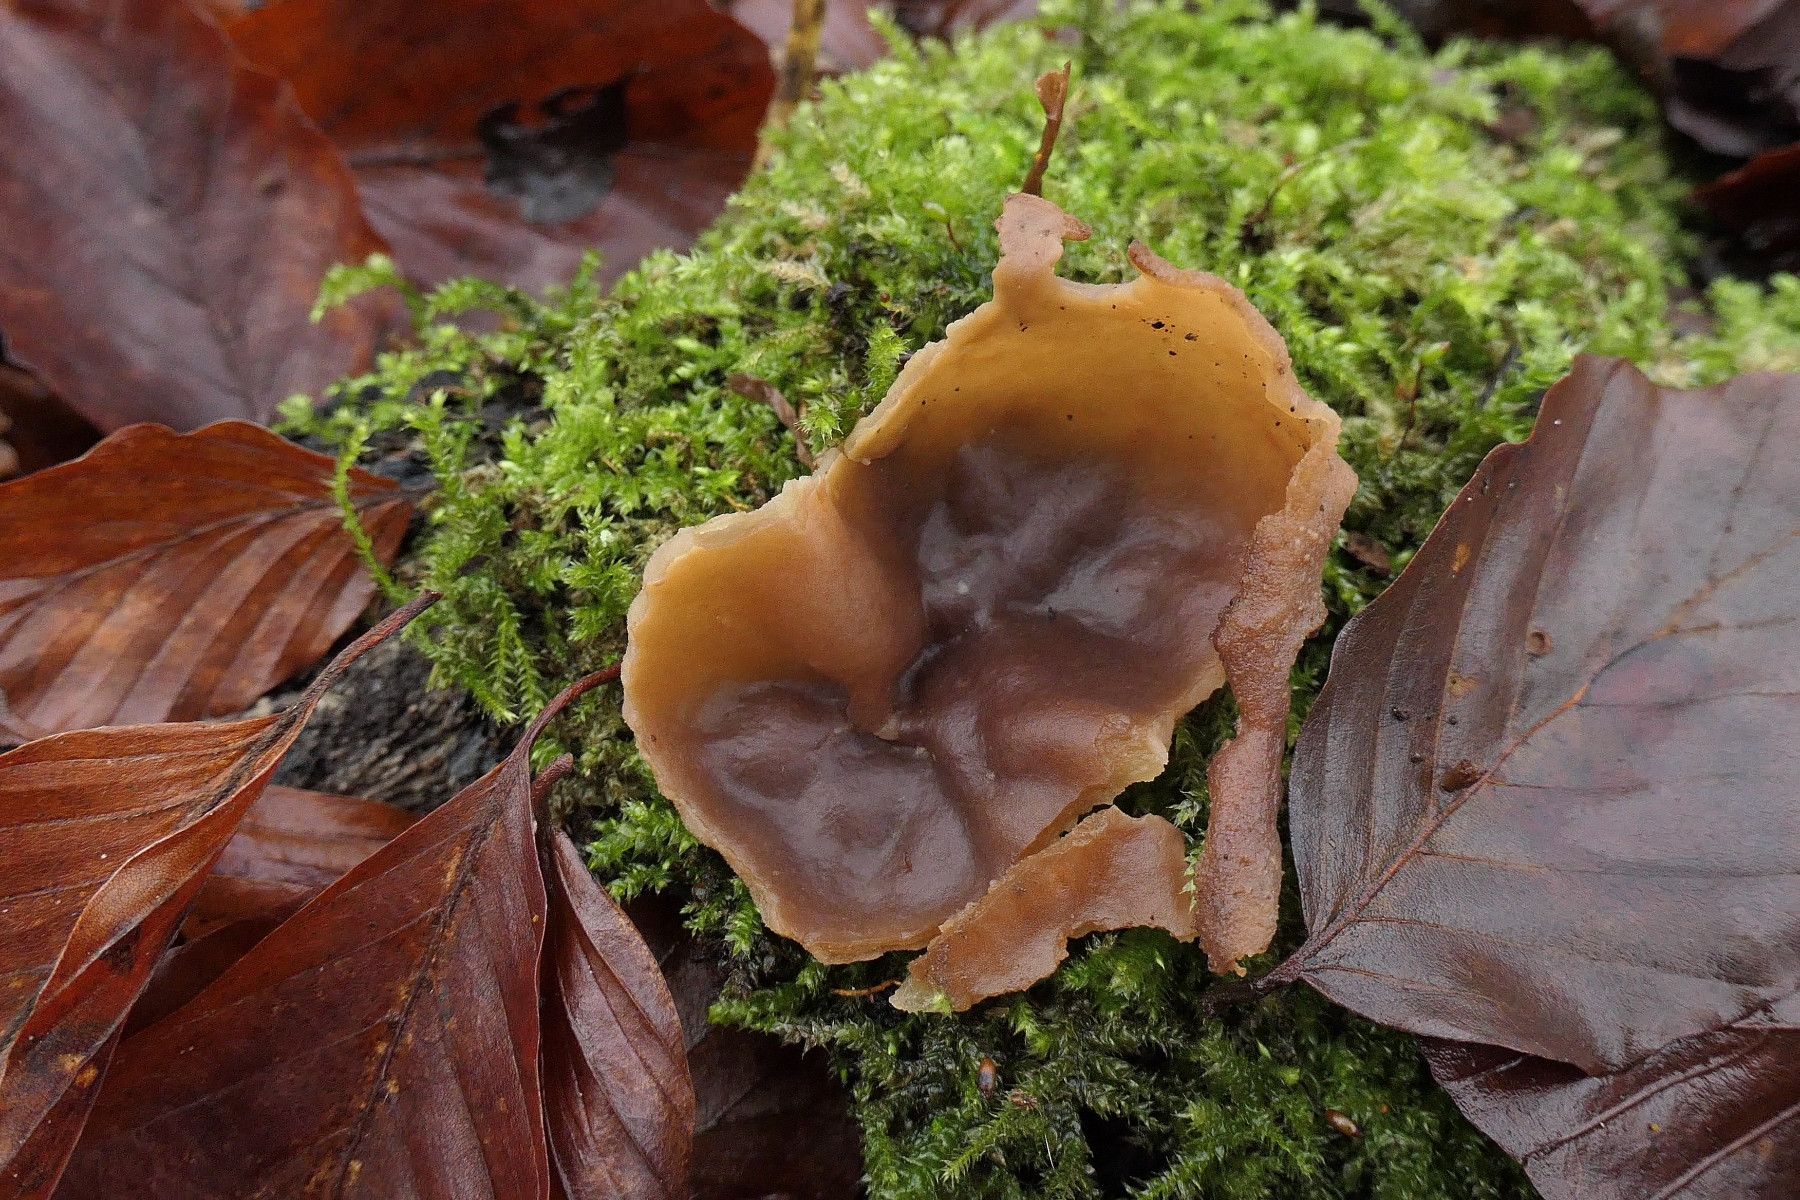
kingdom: Fungi
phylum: Ascomycota
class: Pezizomycetes
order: Pezizales
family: Pezizaceae
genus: Peziza
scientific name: Peziza varia
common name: Ved-bægersvamp
